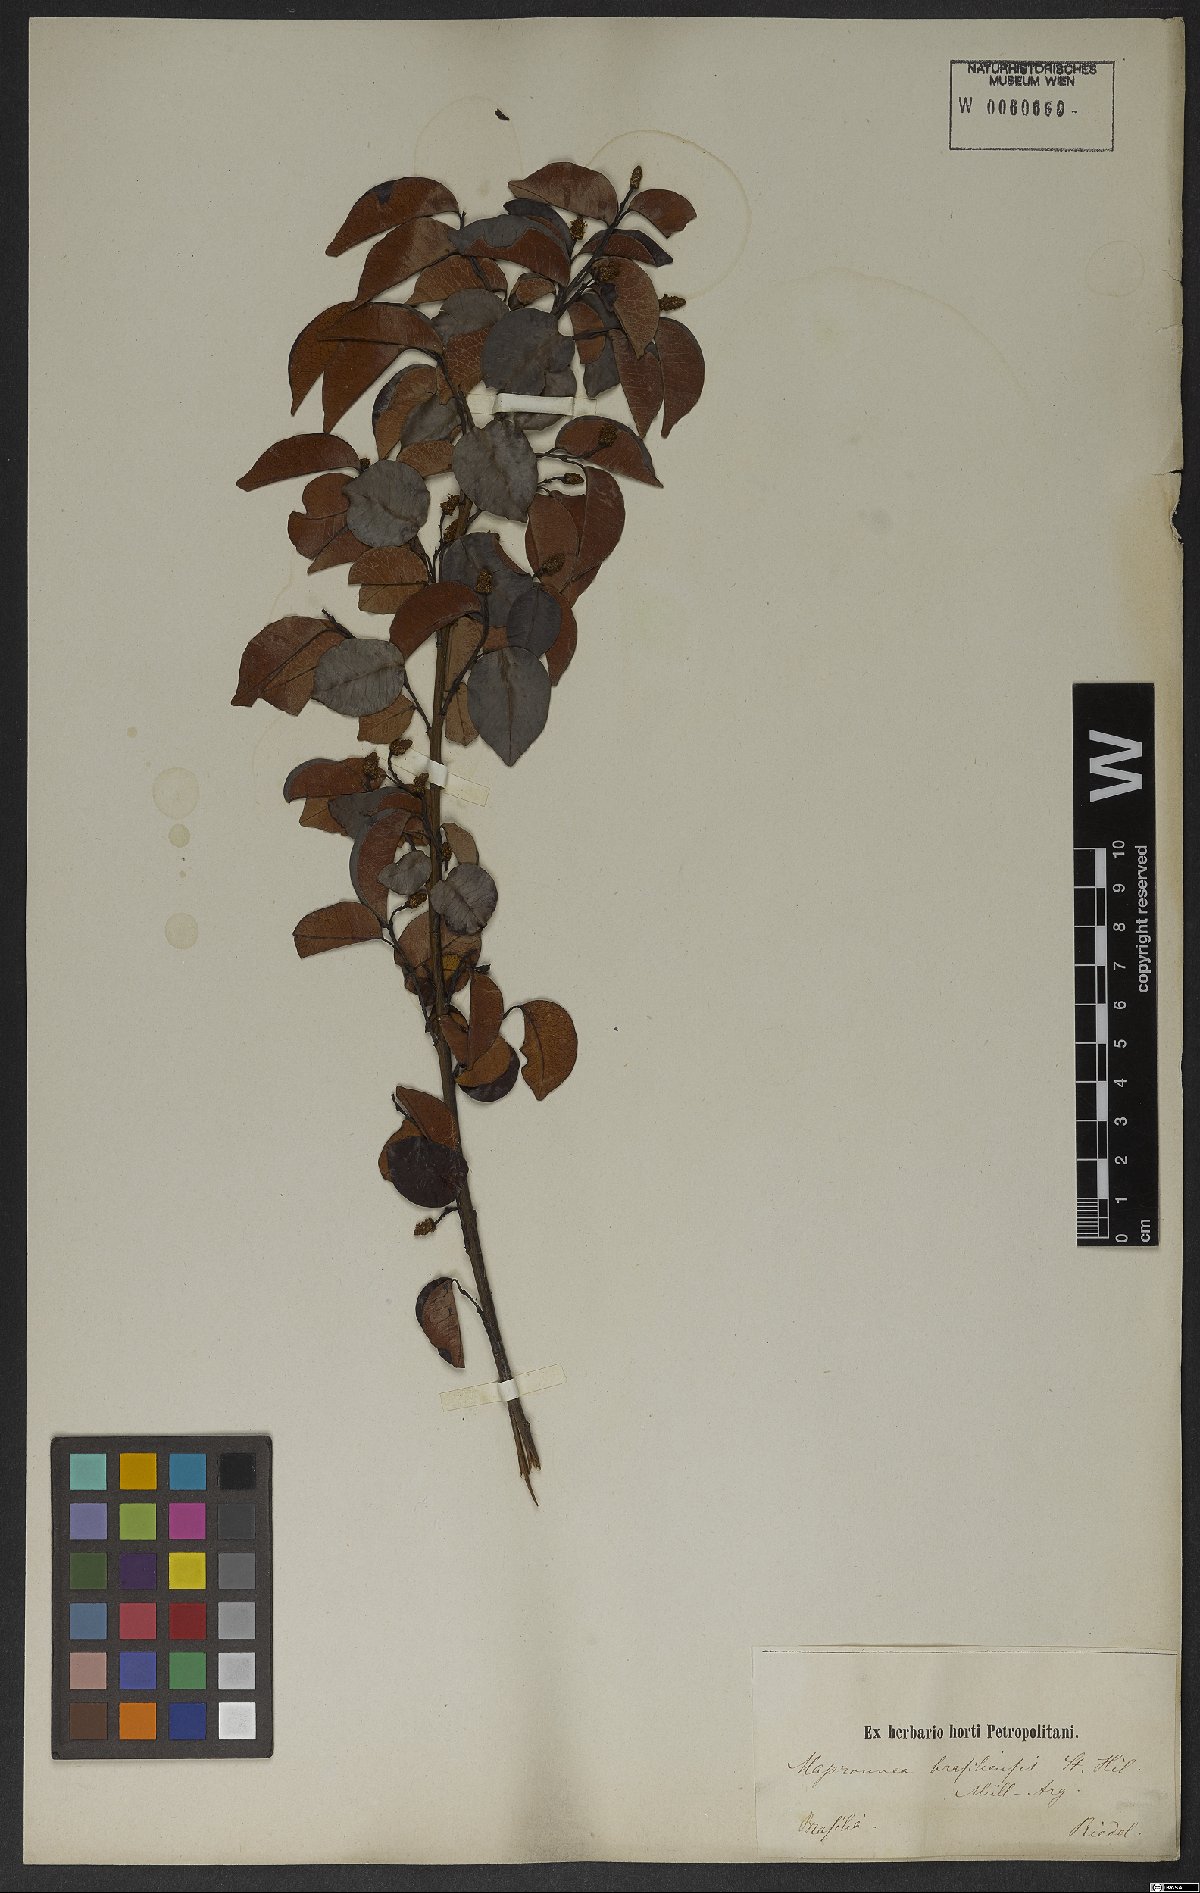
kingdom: Plantae
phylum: Tracheophyta
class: Magnoliopsida
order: Malpighiales
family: Euphorbiaceae
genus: Maprounea
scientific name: Maprounea brasiliensis
